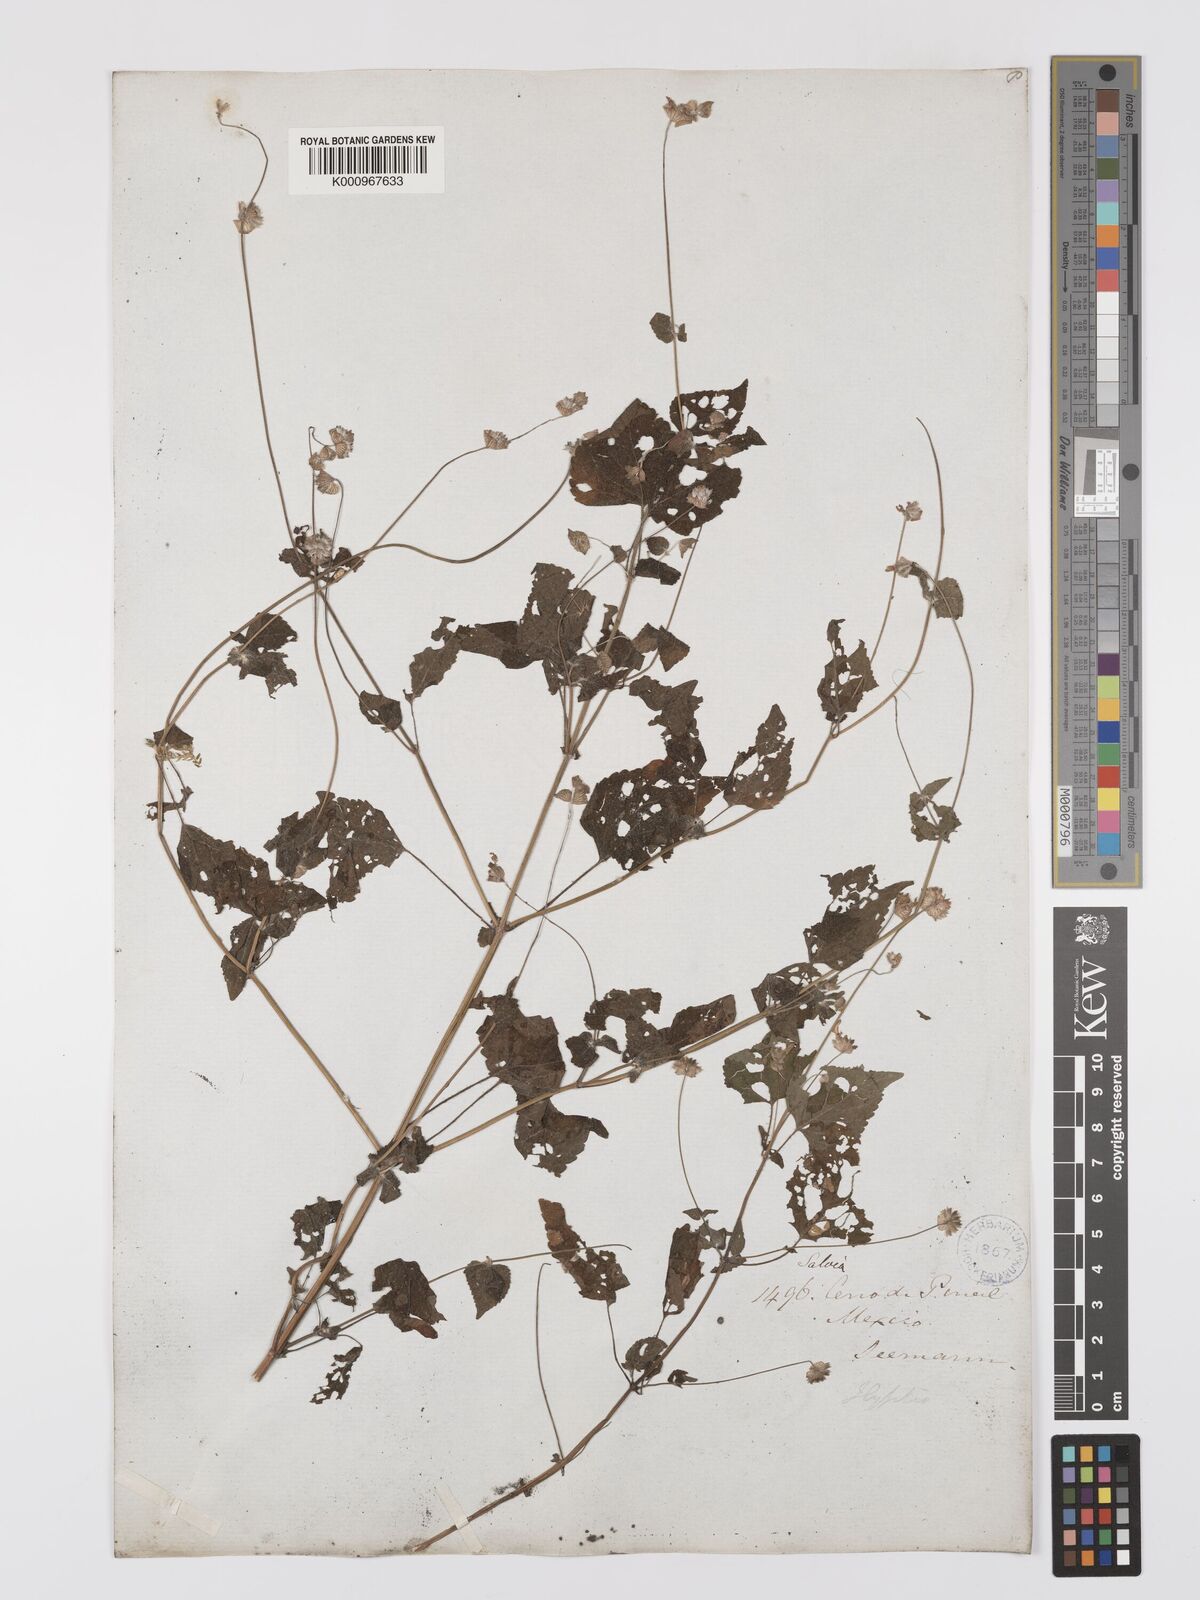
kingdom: Plantae
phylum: Tracheophyta
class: Magnoliopsida
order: Lamiales
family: Lamiaceae
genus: Salvia
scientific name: Salvia lasiocephala
